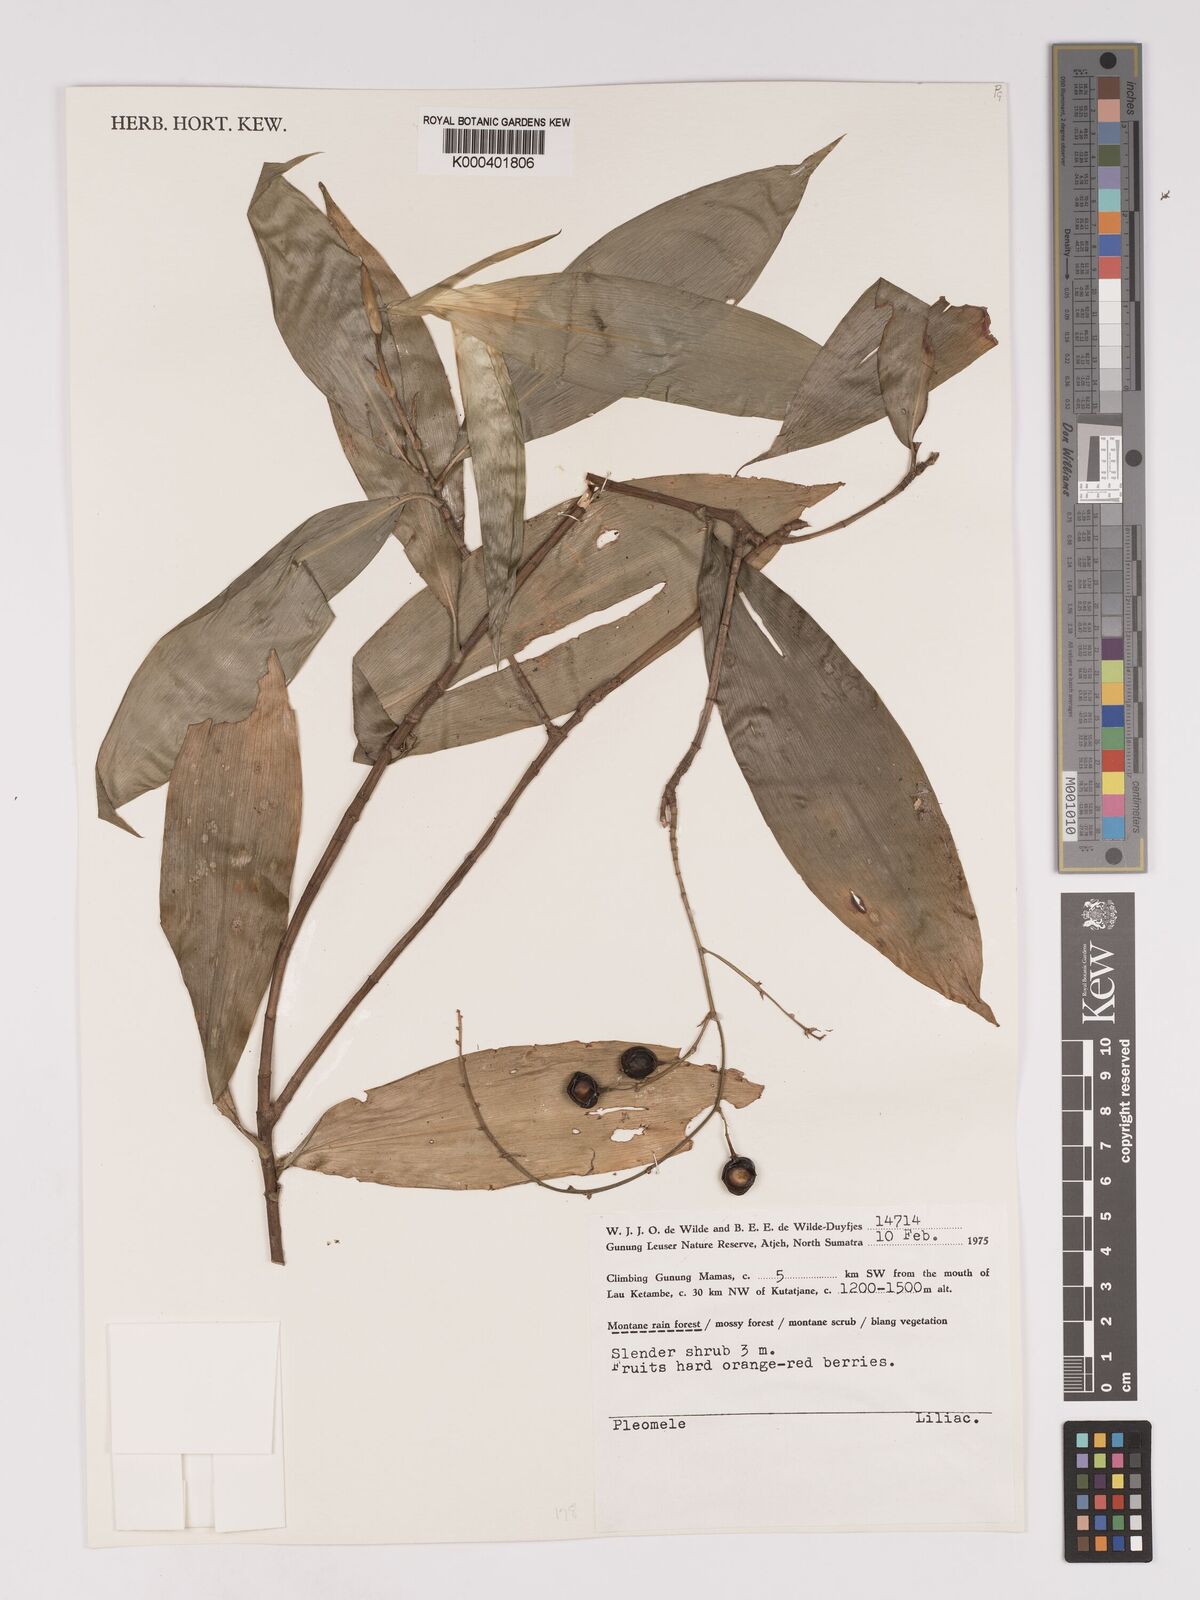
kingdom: Plantae
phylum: Tracheophyta
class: Liliopsida
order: Asparagales
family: Asparagaceae
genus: Dracaena
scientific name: Dracaena
